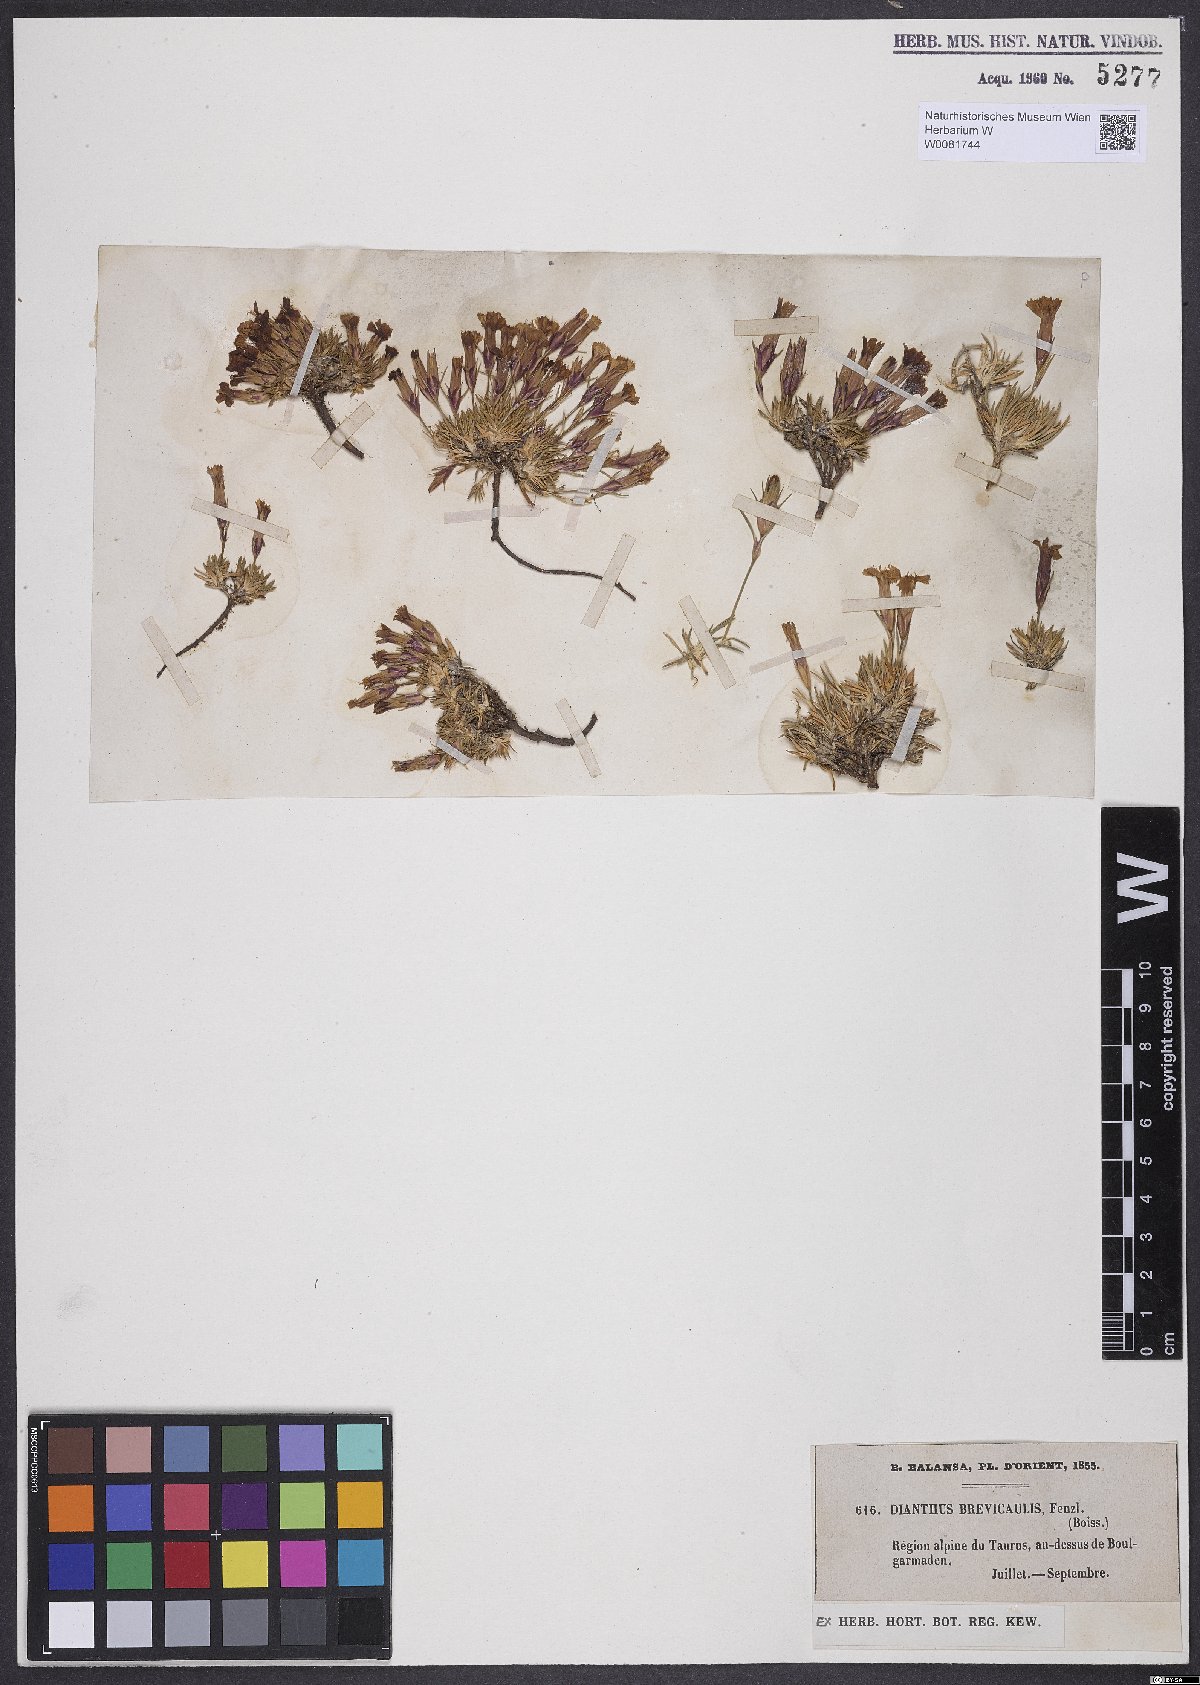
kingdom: Plantae
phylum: Tracheophyta
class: Magnoliopsida
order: Caryophyllales
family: Caryophyllaceae
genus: Dianthus
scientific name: Dianthus brevicaulis
